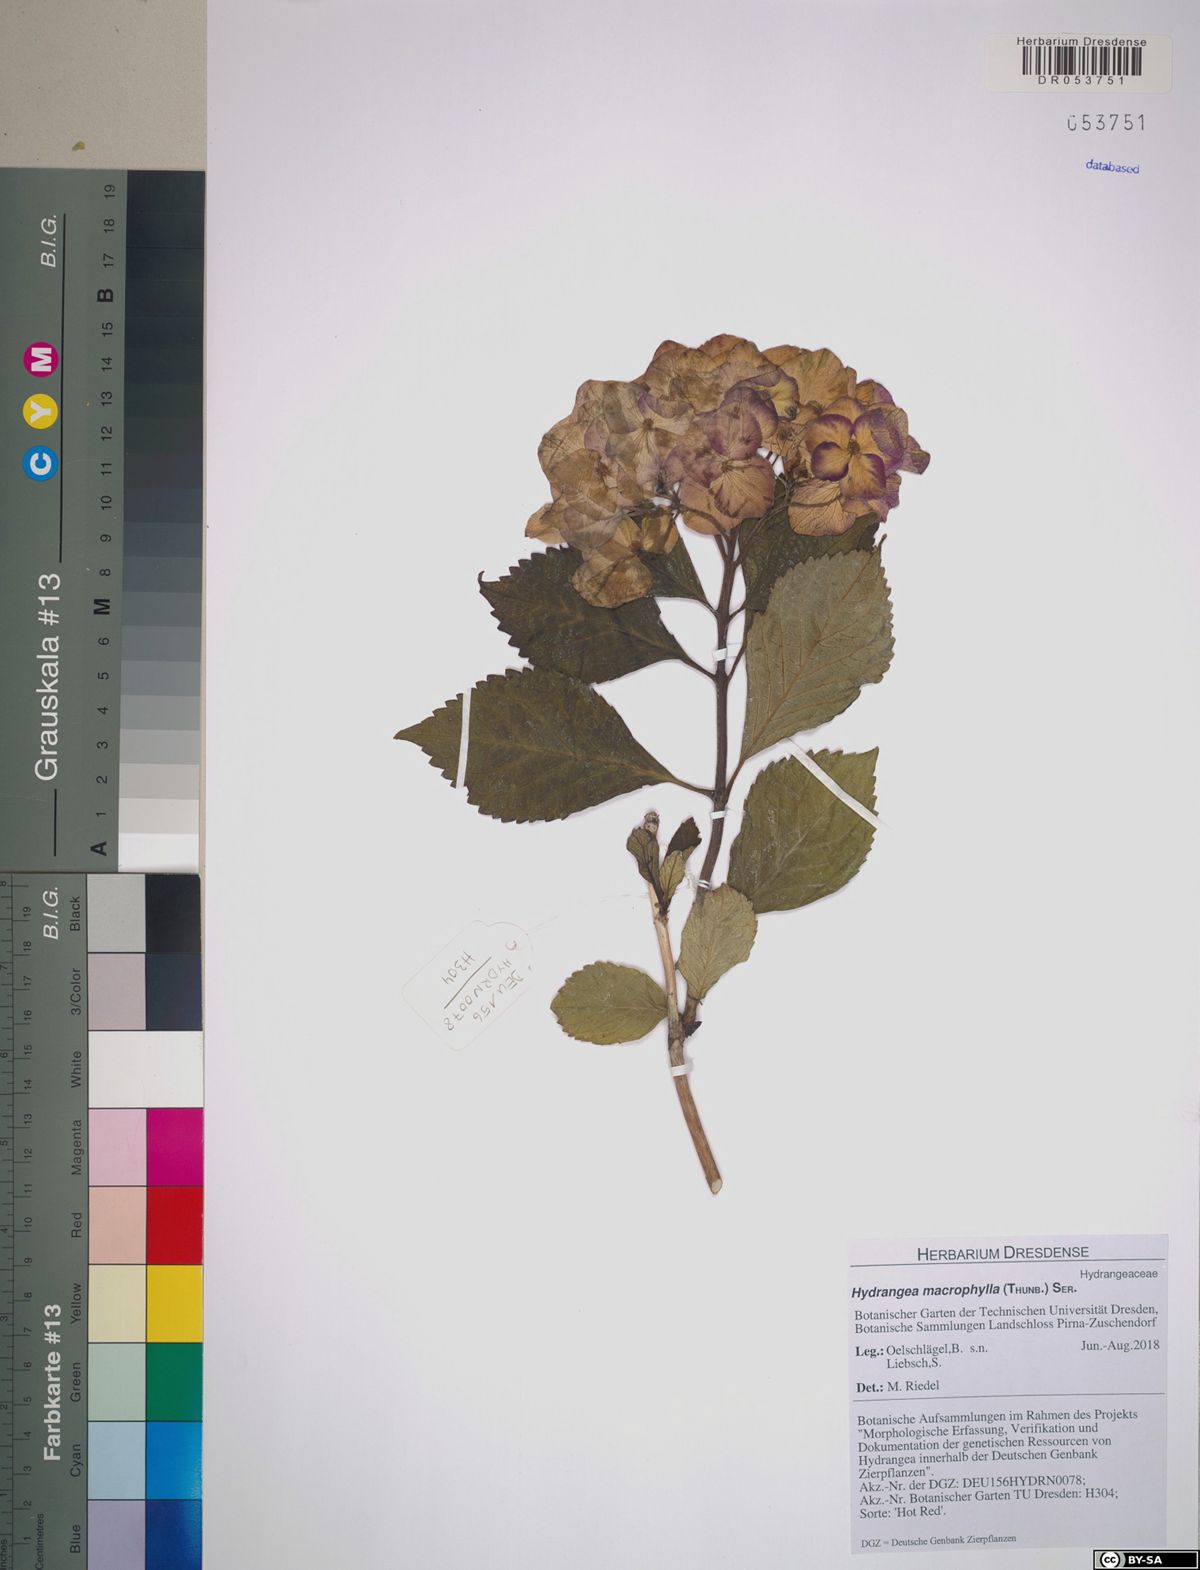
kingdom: Plantae
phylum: Tracheophyta
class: Magnoliopsida
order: Cornales
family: Hydrangeaceae
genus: Hydrangea
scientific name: Hydrangea macrophylla
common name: Hydrangea
